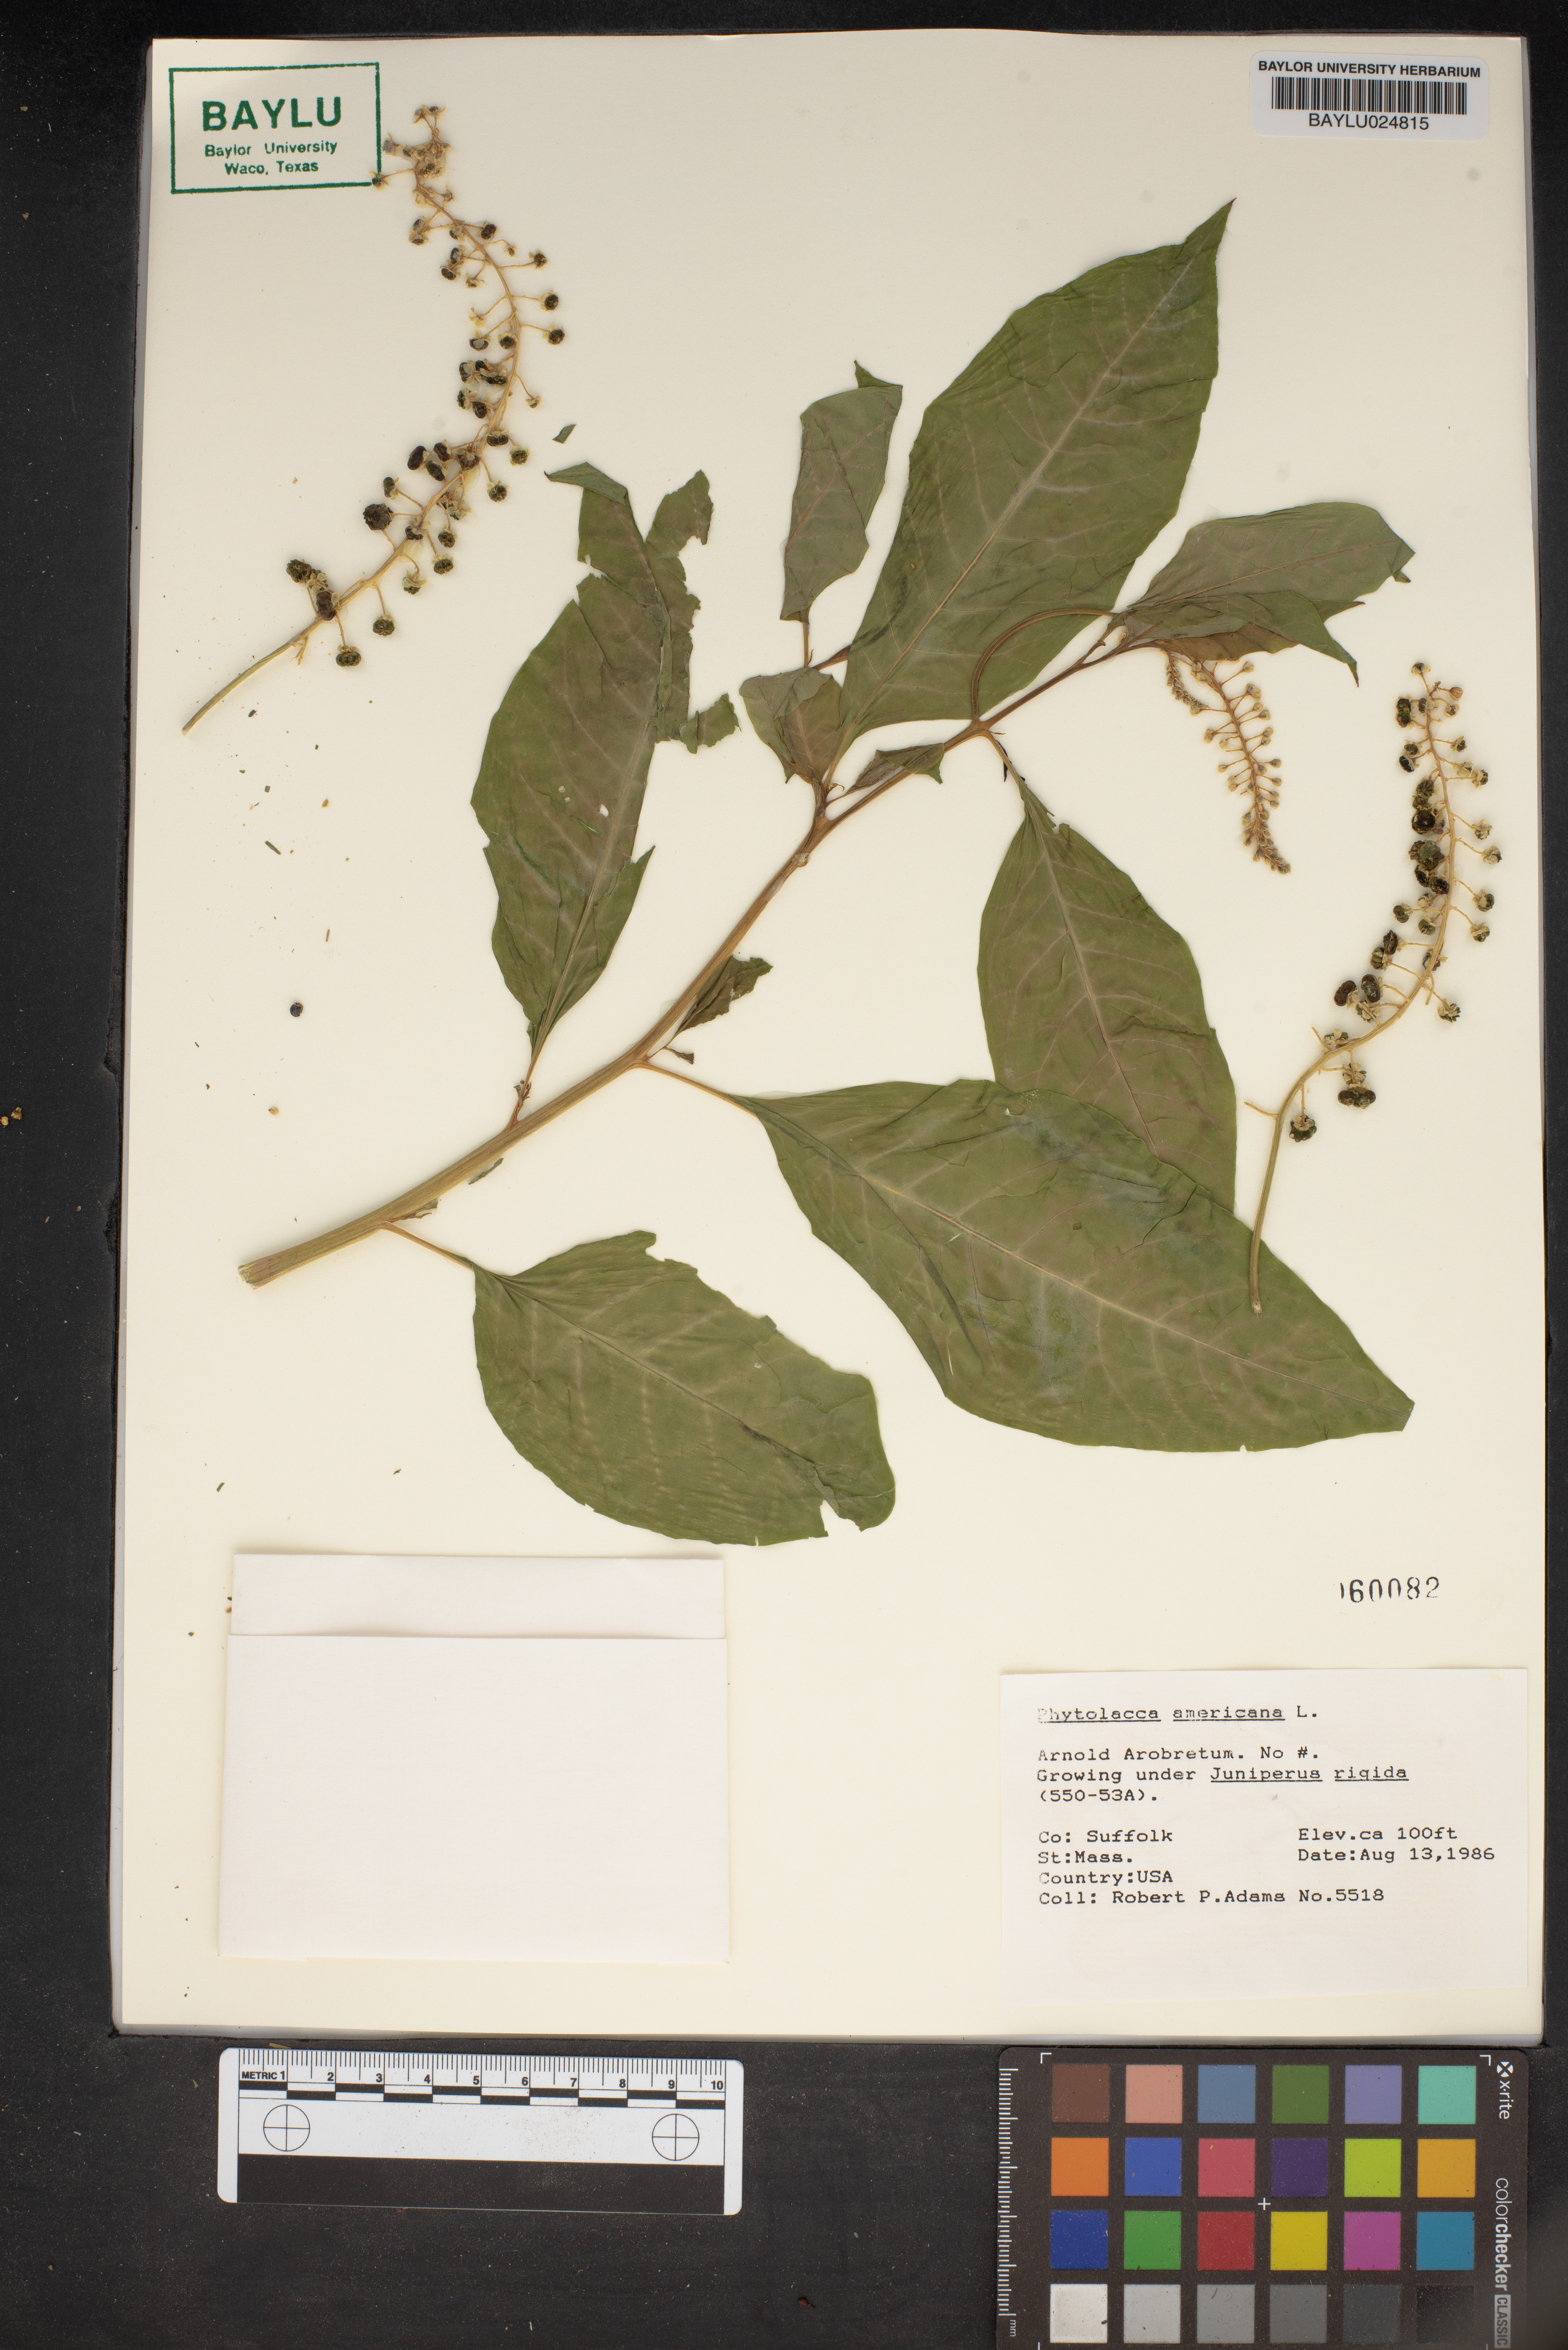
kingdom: Plantae
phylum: Tracheophyta
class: Magnoliopsida
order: Caryophyllales
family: Phytolaccaceae
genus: Phytolacca
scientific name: Phytolacca americana
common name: American pokeweed
